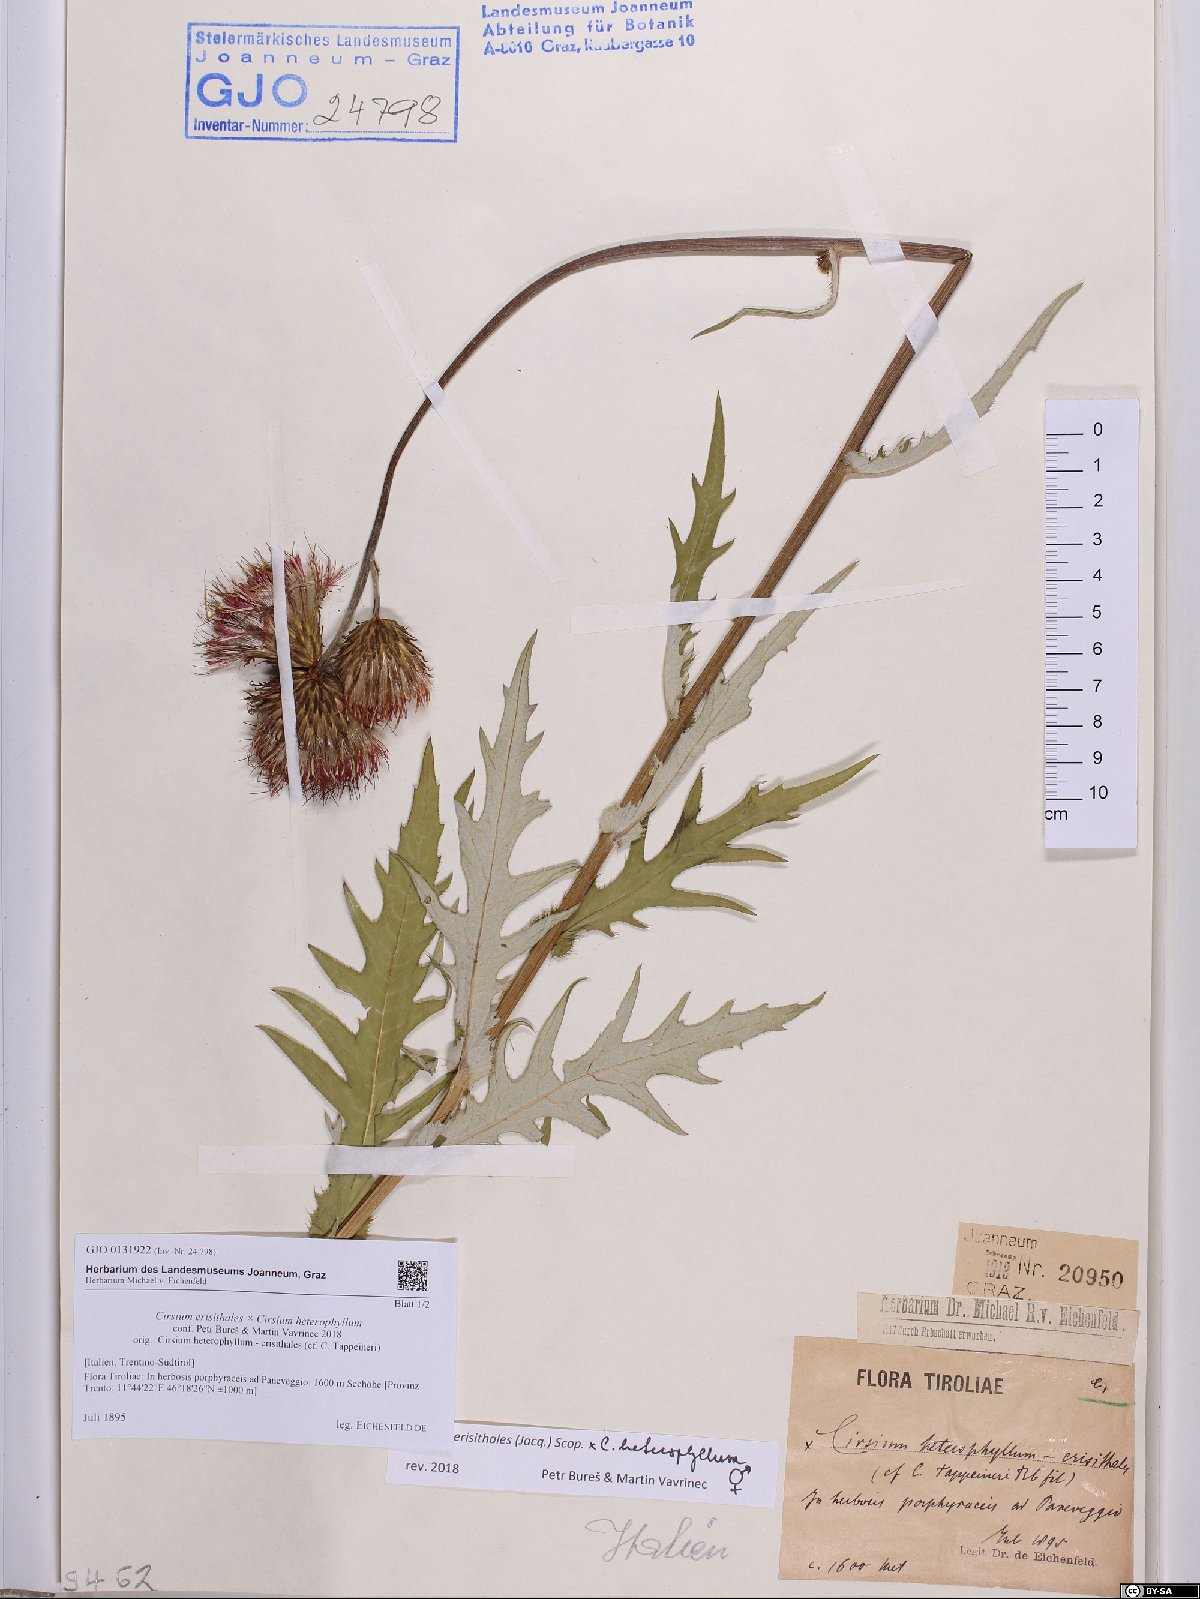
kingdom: Plantae
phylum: Tracheophyta
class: Magnoliopsida
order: Asterales
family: Asteraceae
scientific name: Asteraceae
